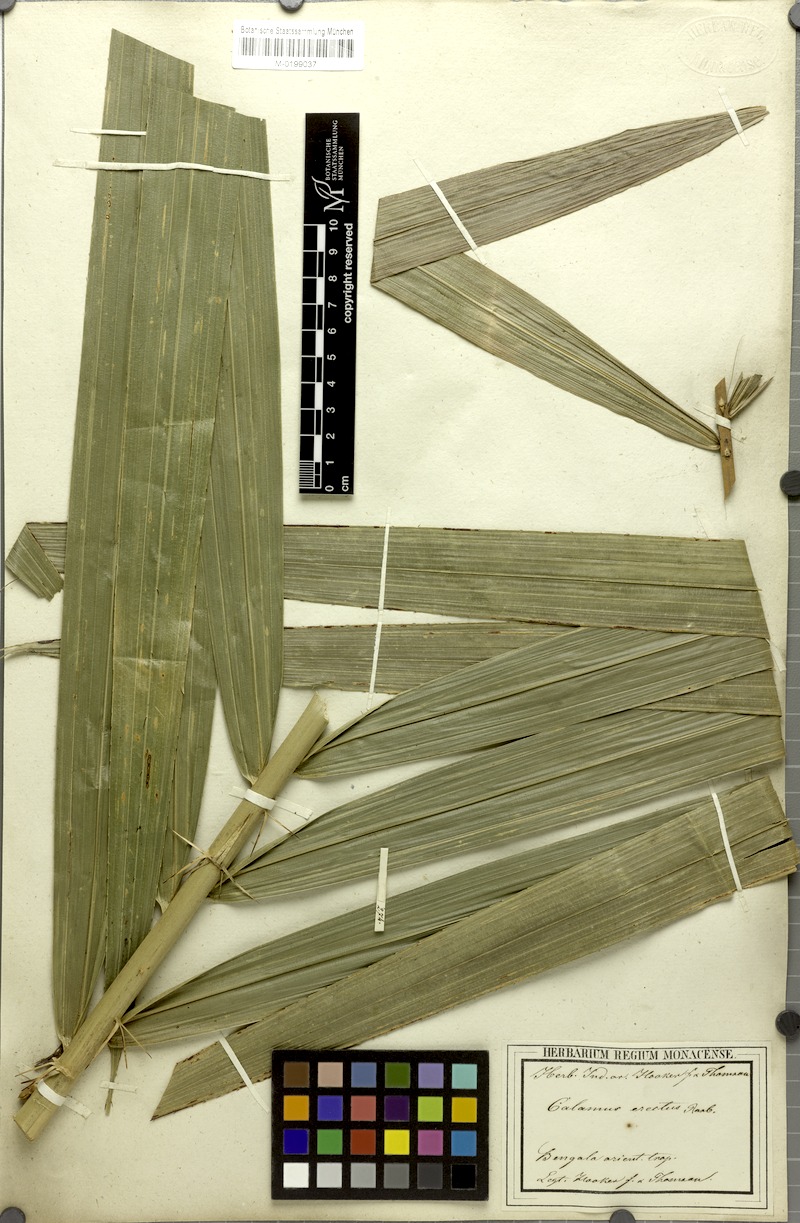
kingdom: Plantae
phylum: Tracheophyta
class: Liliopsida
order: Arecales
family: Arecaceae
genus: Calamus
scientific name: Calamus erectus
